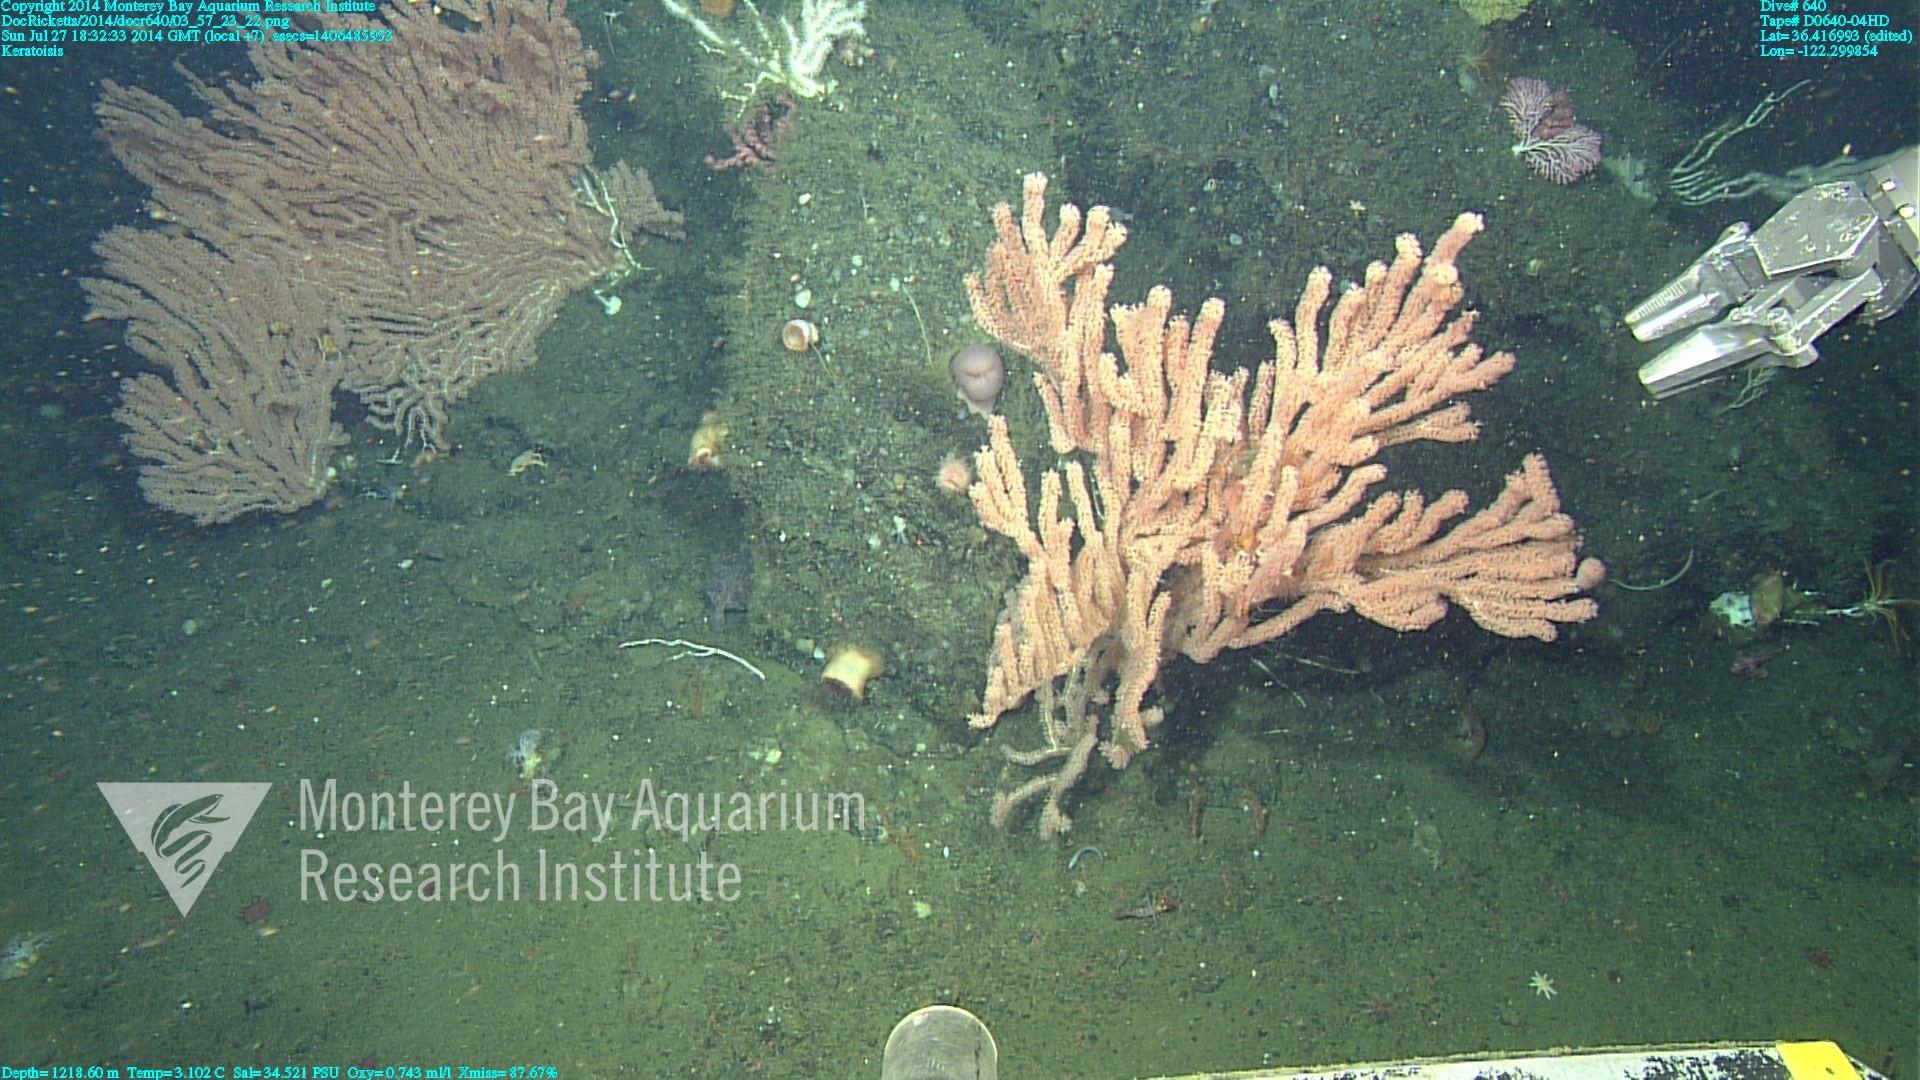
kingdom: Animalia
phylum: Cnidaria
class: Anthozoa
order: Scleralcyonacea
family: Keratoisididae
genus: Keratoisis
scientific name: Keratoisis
